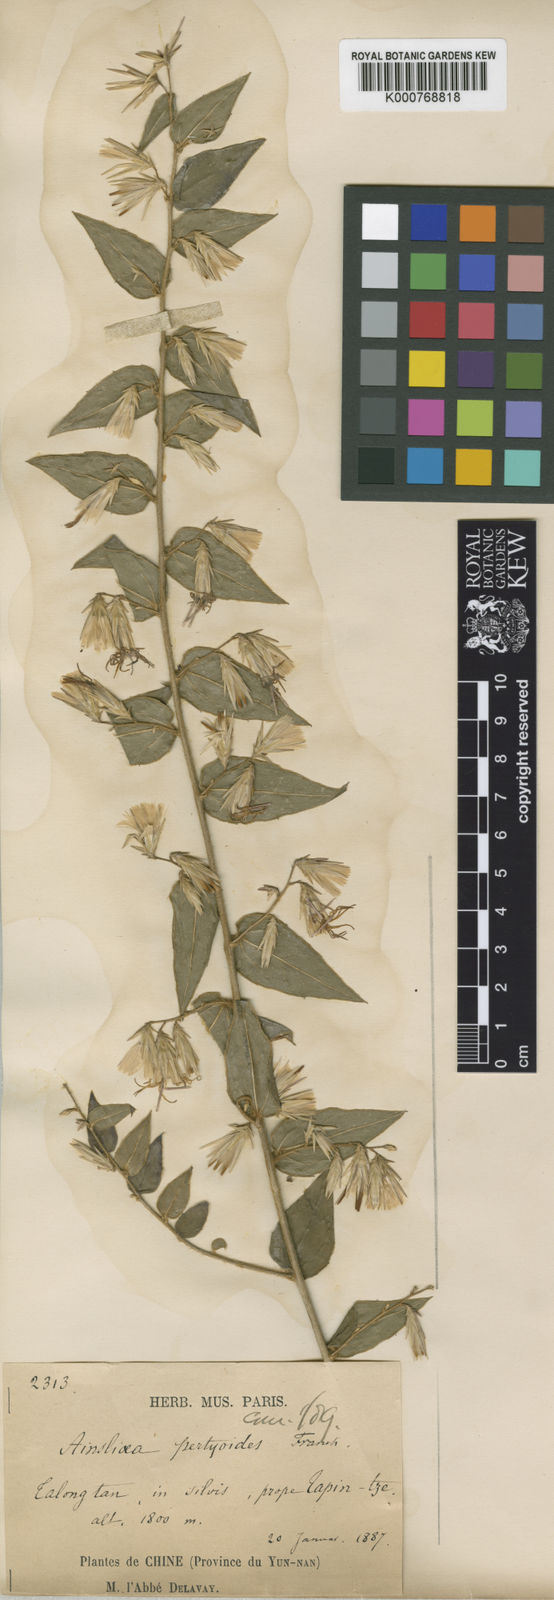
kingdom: Plantae
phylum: Tracheophyta
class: Magnoliopsida
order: Asterales
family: Asteraceae
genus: Ainsliaea
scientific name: Ainsliaea pertyoides
